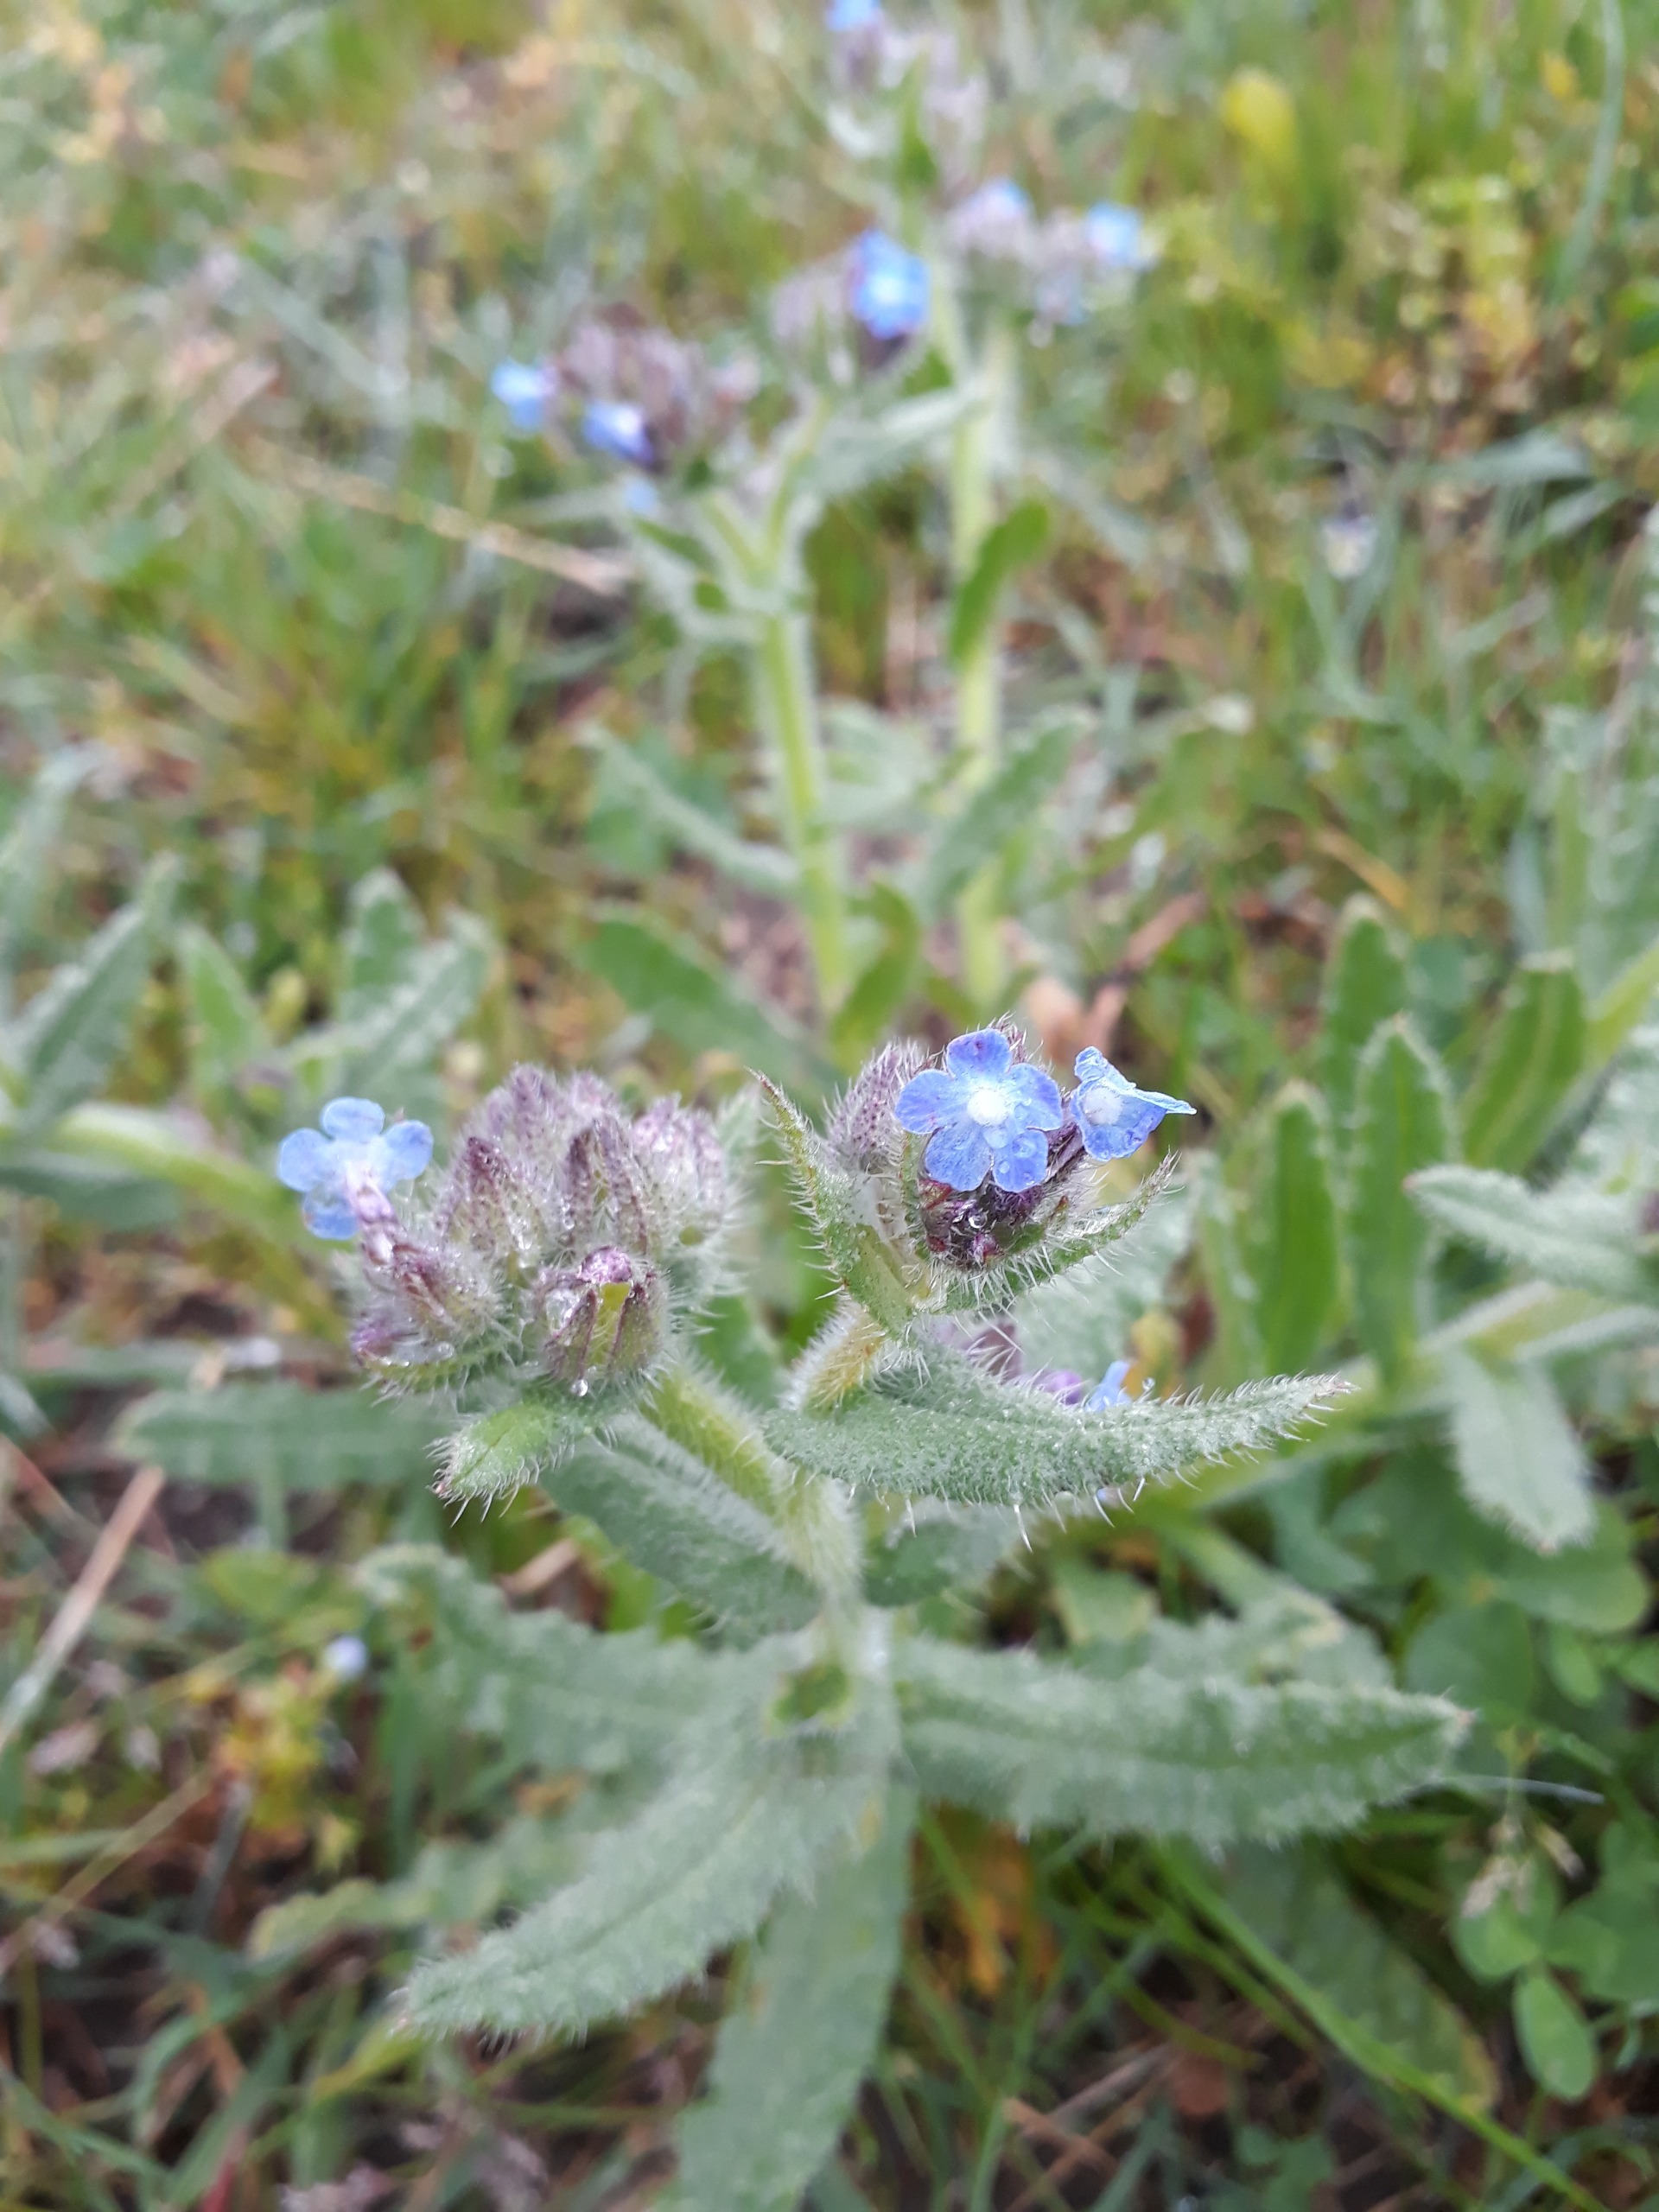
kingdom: Plantae
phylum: Tracheophyta
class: Magnoliopsida
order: Boraginales
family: Boraginaceae
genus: Lycopsis
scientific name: Lycopsis arvensis
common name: Krumhals
